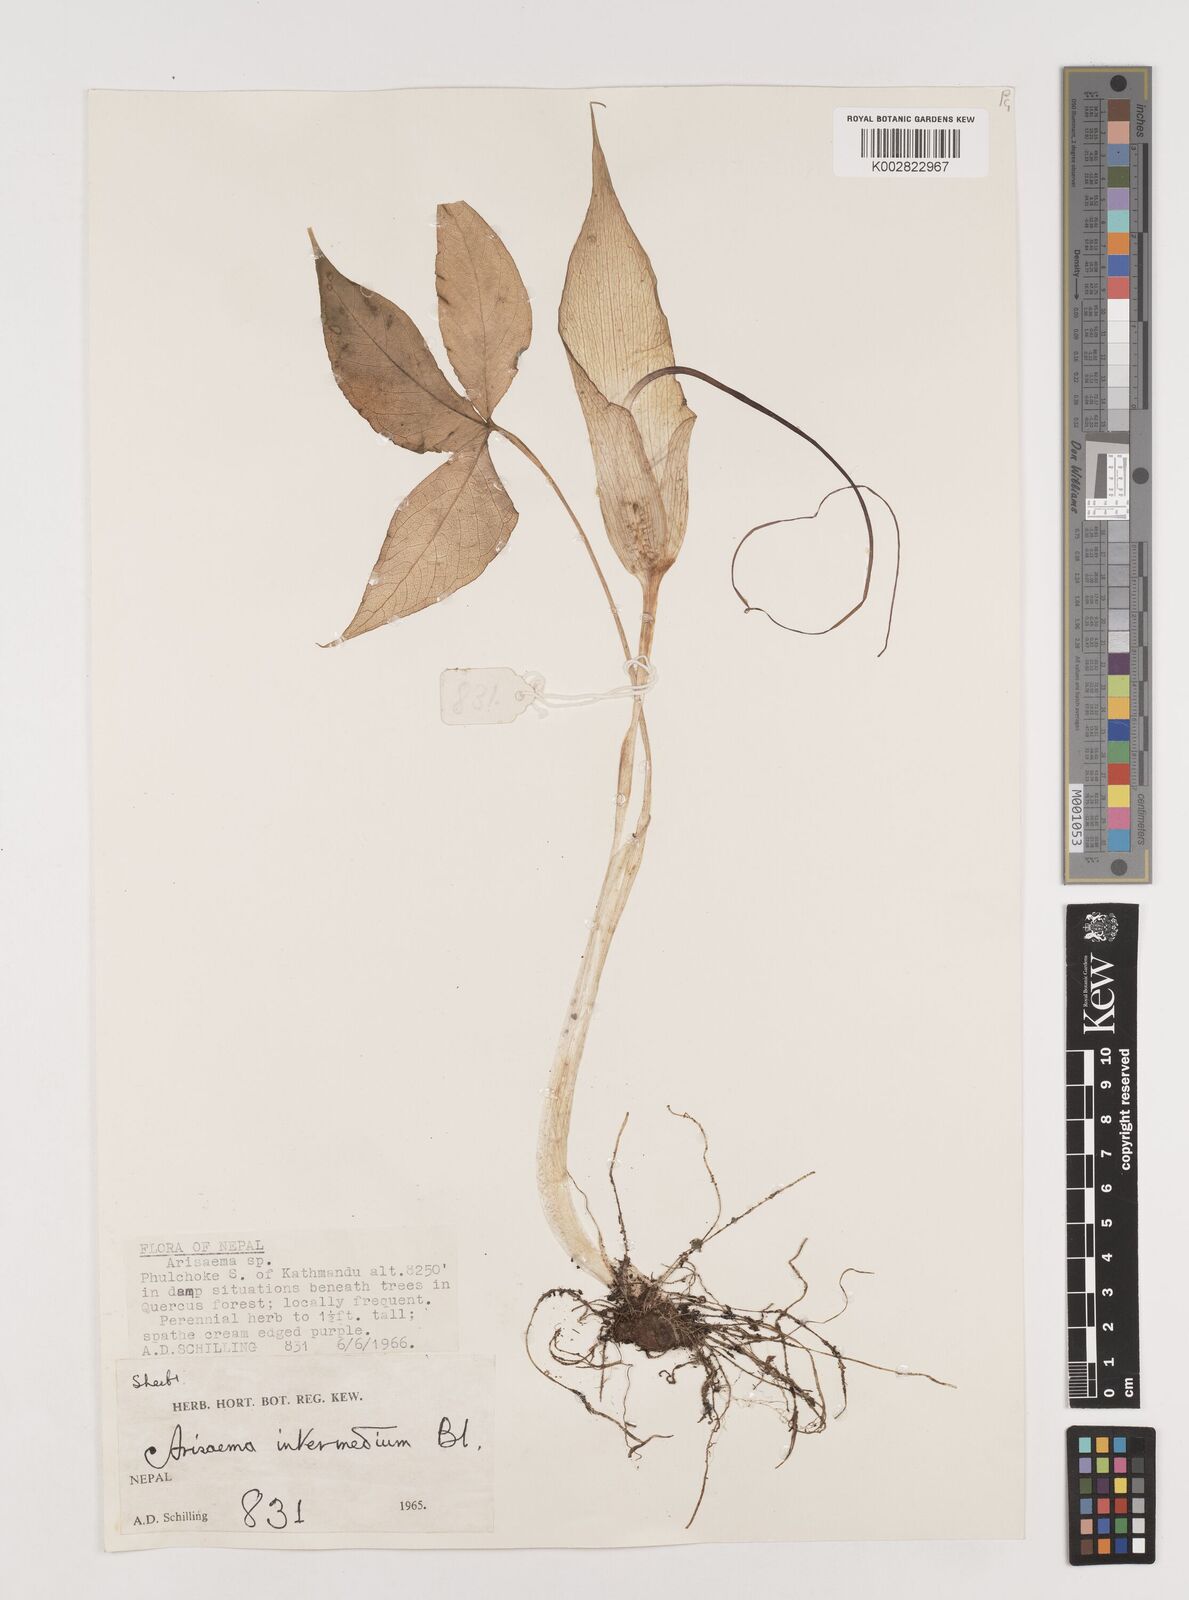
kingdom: Plantae
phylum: Tracheophyta
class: Liliopsida
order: Alismatales
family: Araceae
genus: Arisaema
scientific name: Arisaema intermedium
